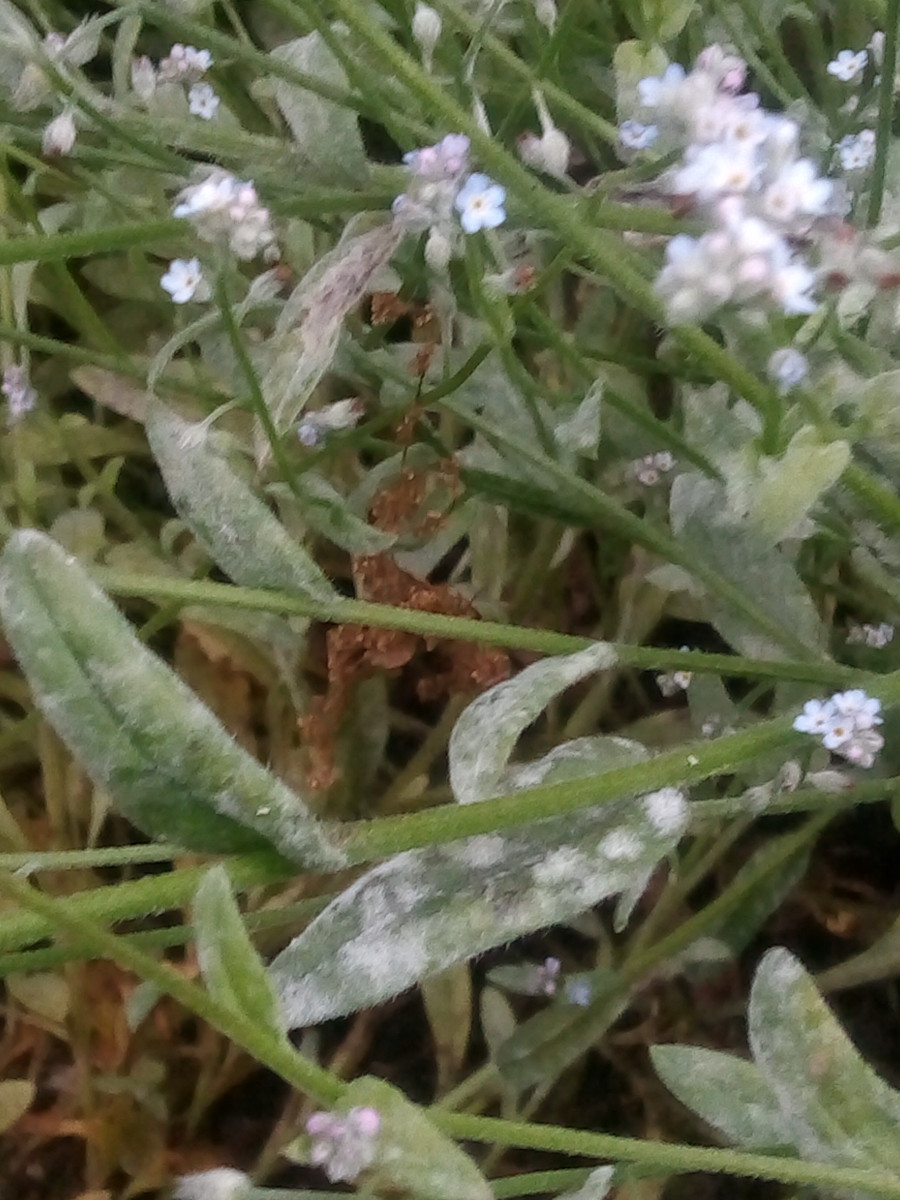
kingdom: Fungi
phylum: Ascomycota
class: Leotiomycetes
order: Helotiales
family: Erysiphaceae
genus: Golovinomyces
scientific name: Golovinomyces asperifolii
